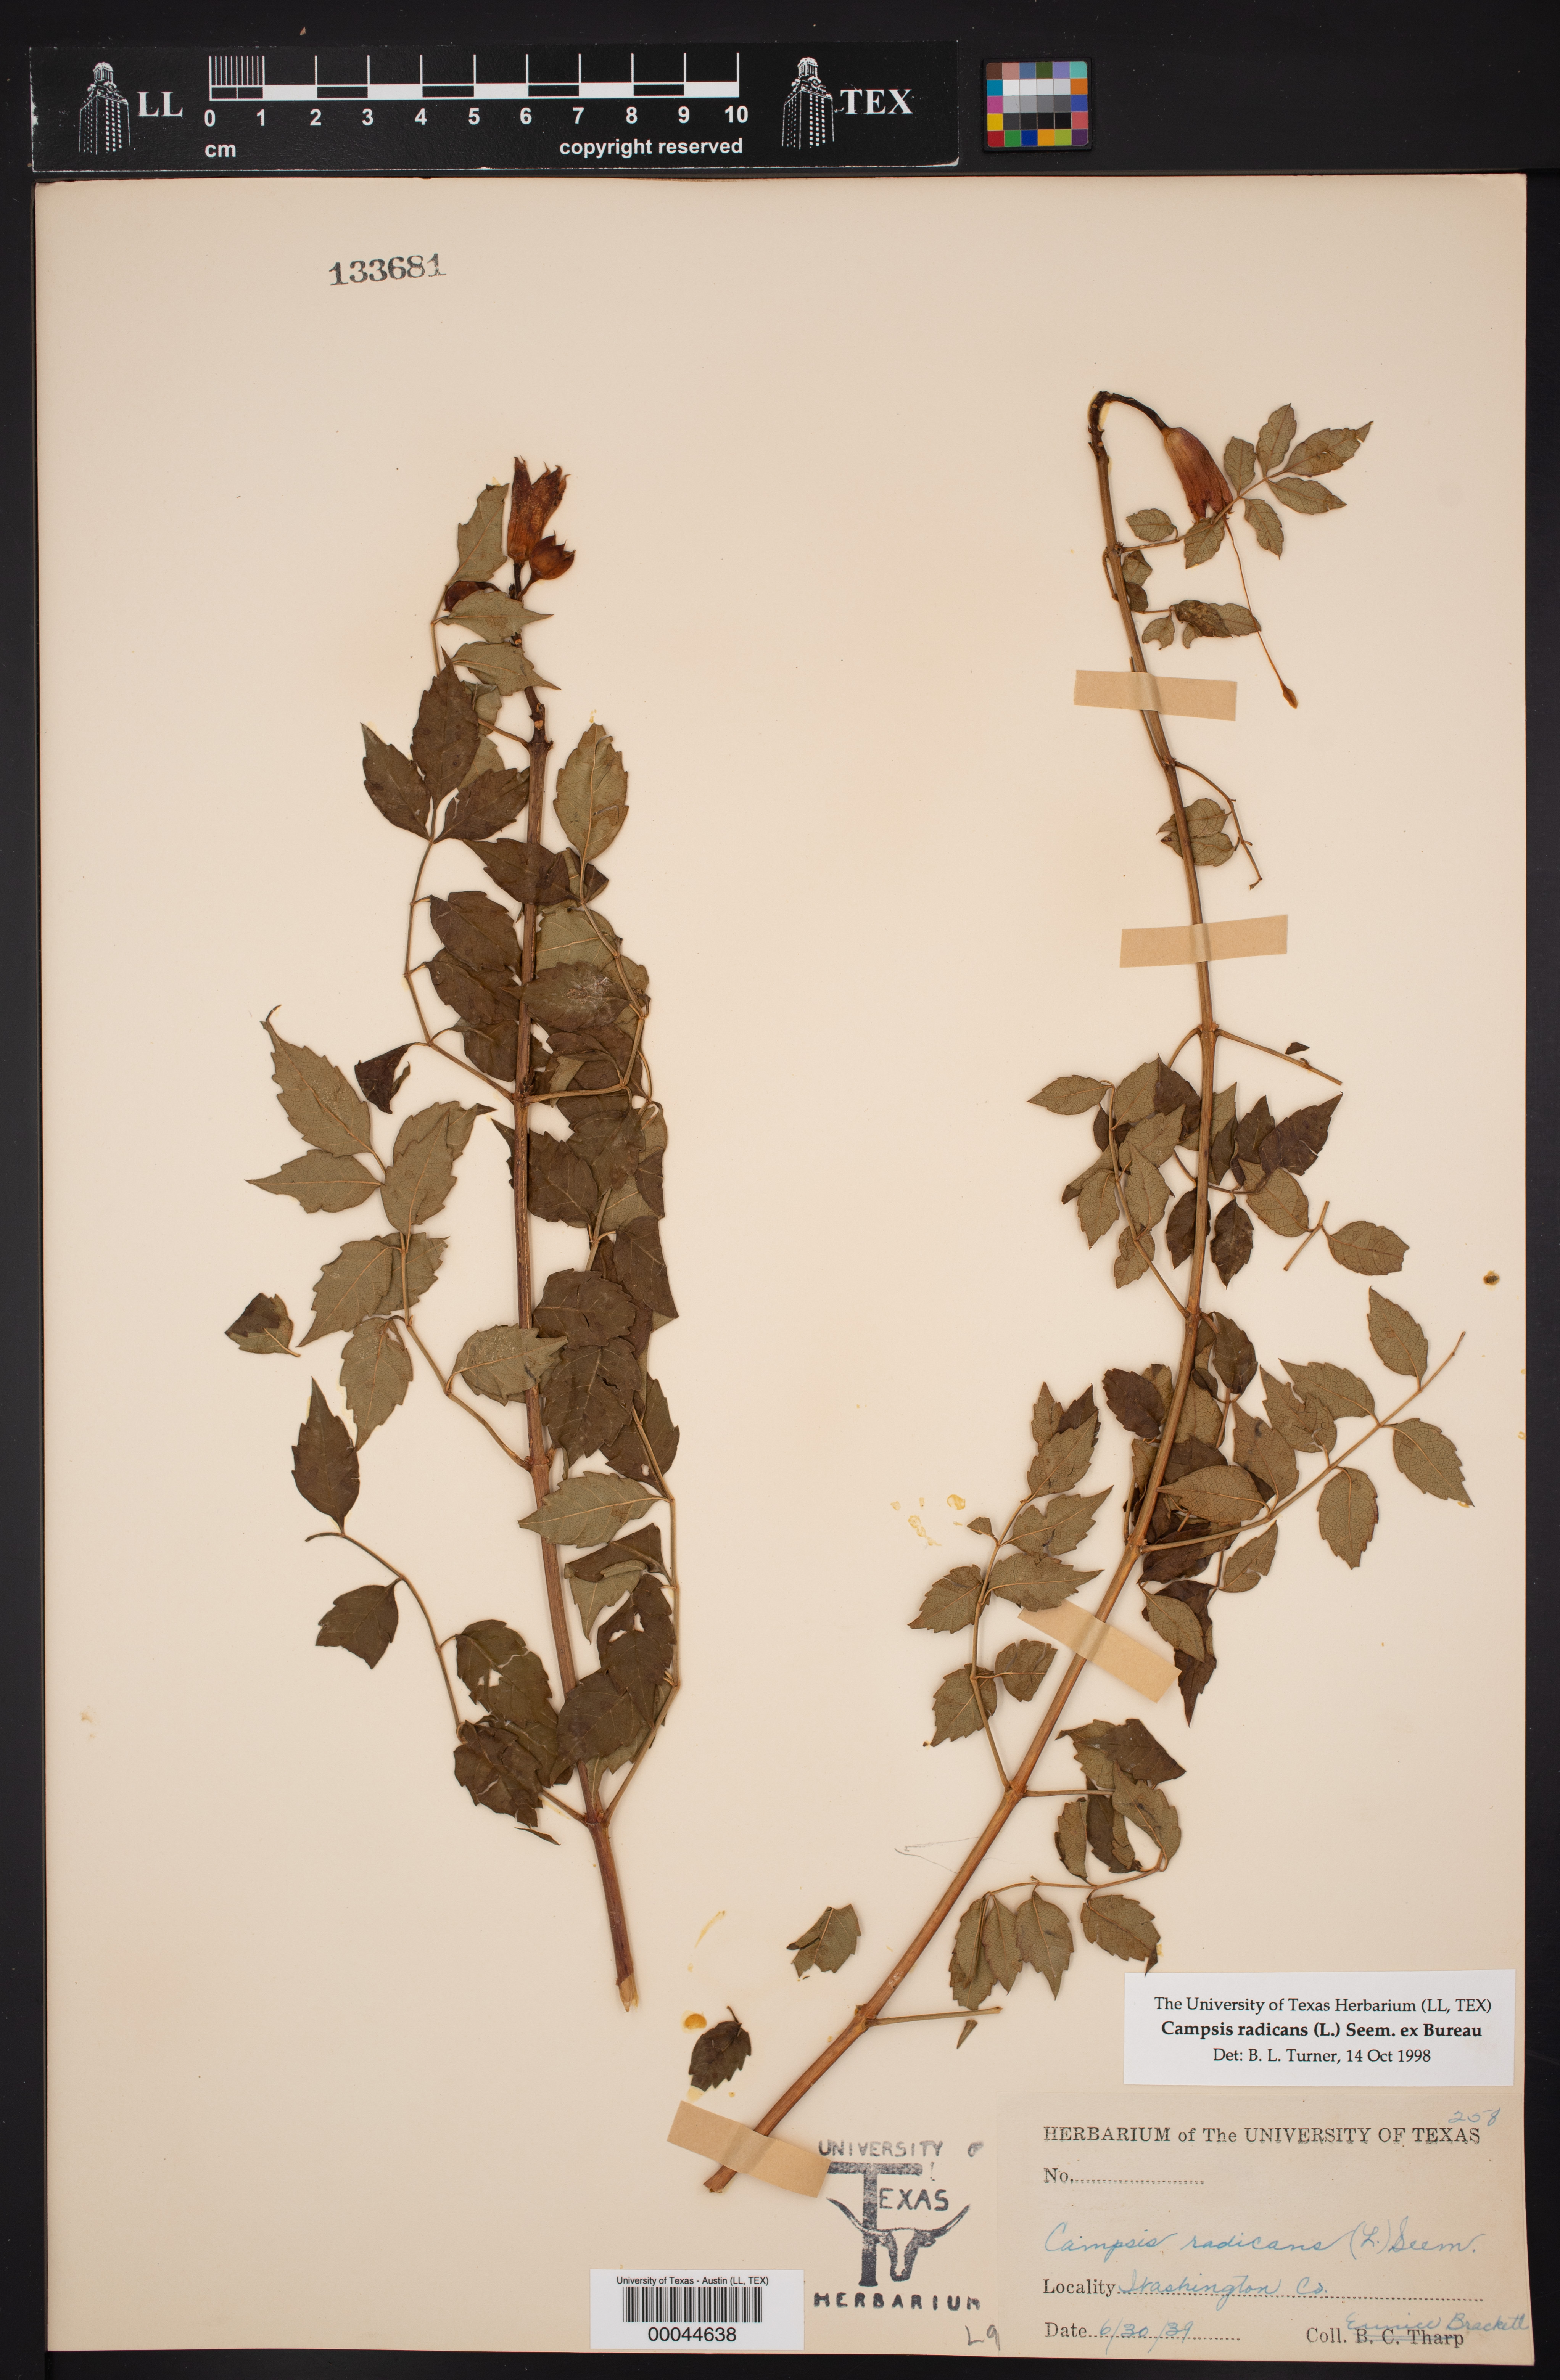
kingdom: Plantae
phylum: Tracheophyta
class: Magnoliopsida
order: Lamiales
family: Bignoniaceae
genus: Campsis
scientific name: Campsis radicans
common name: Trumpet-creeper
